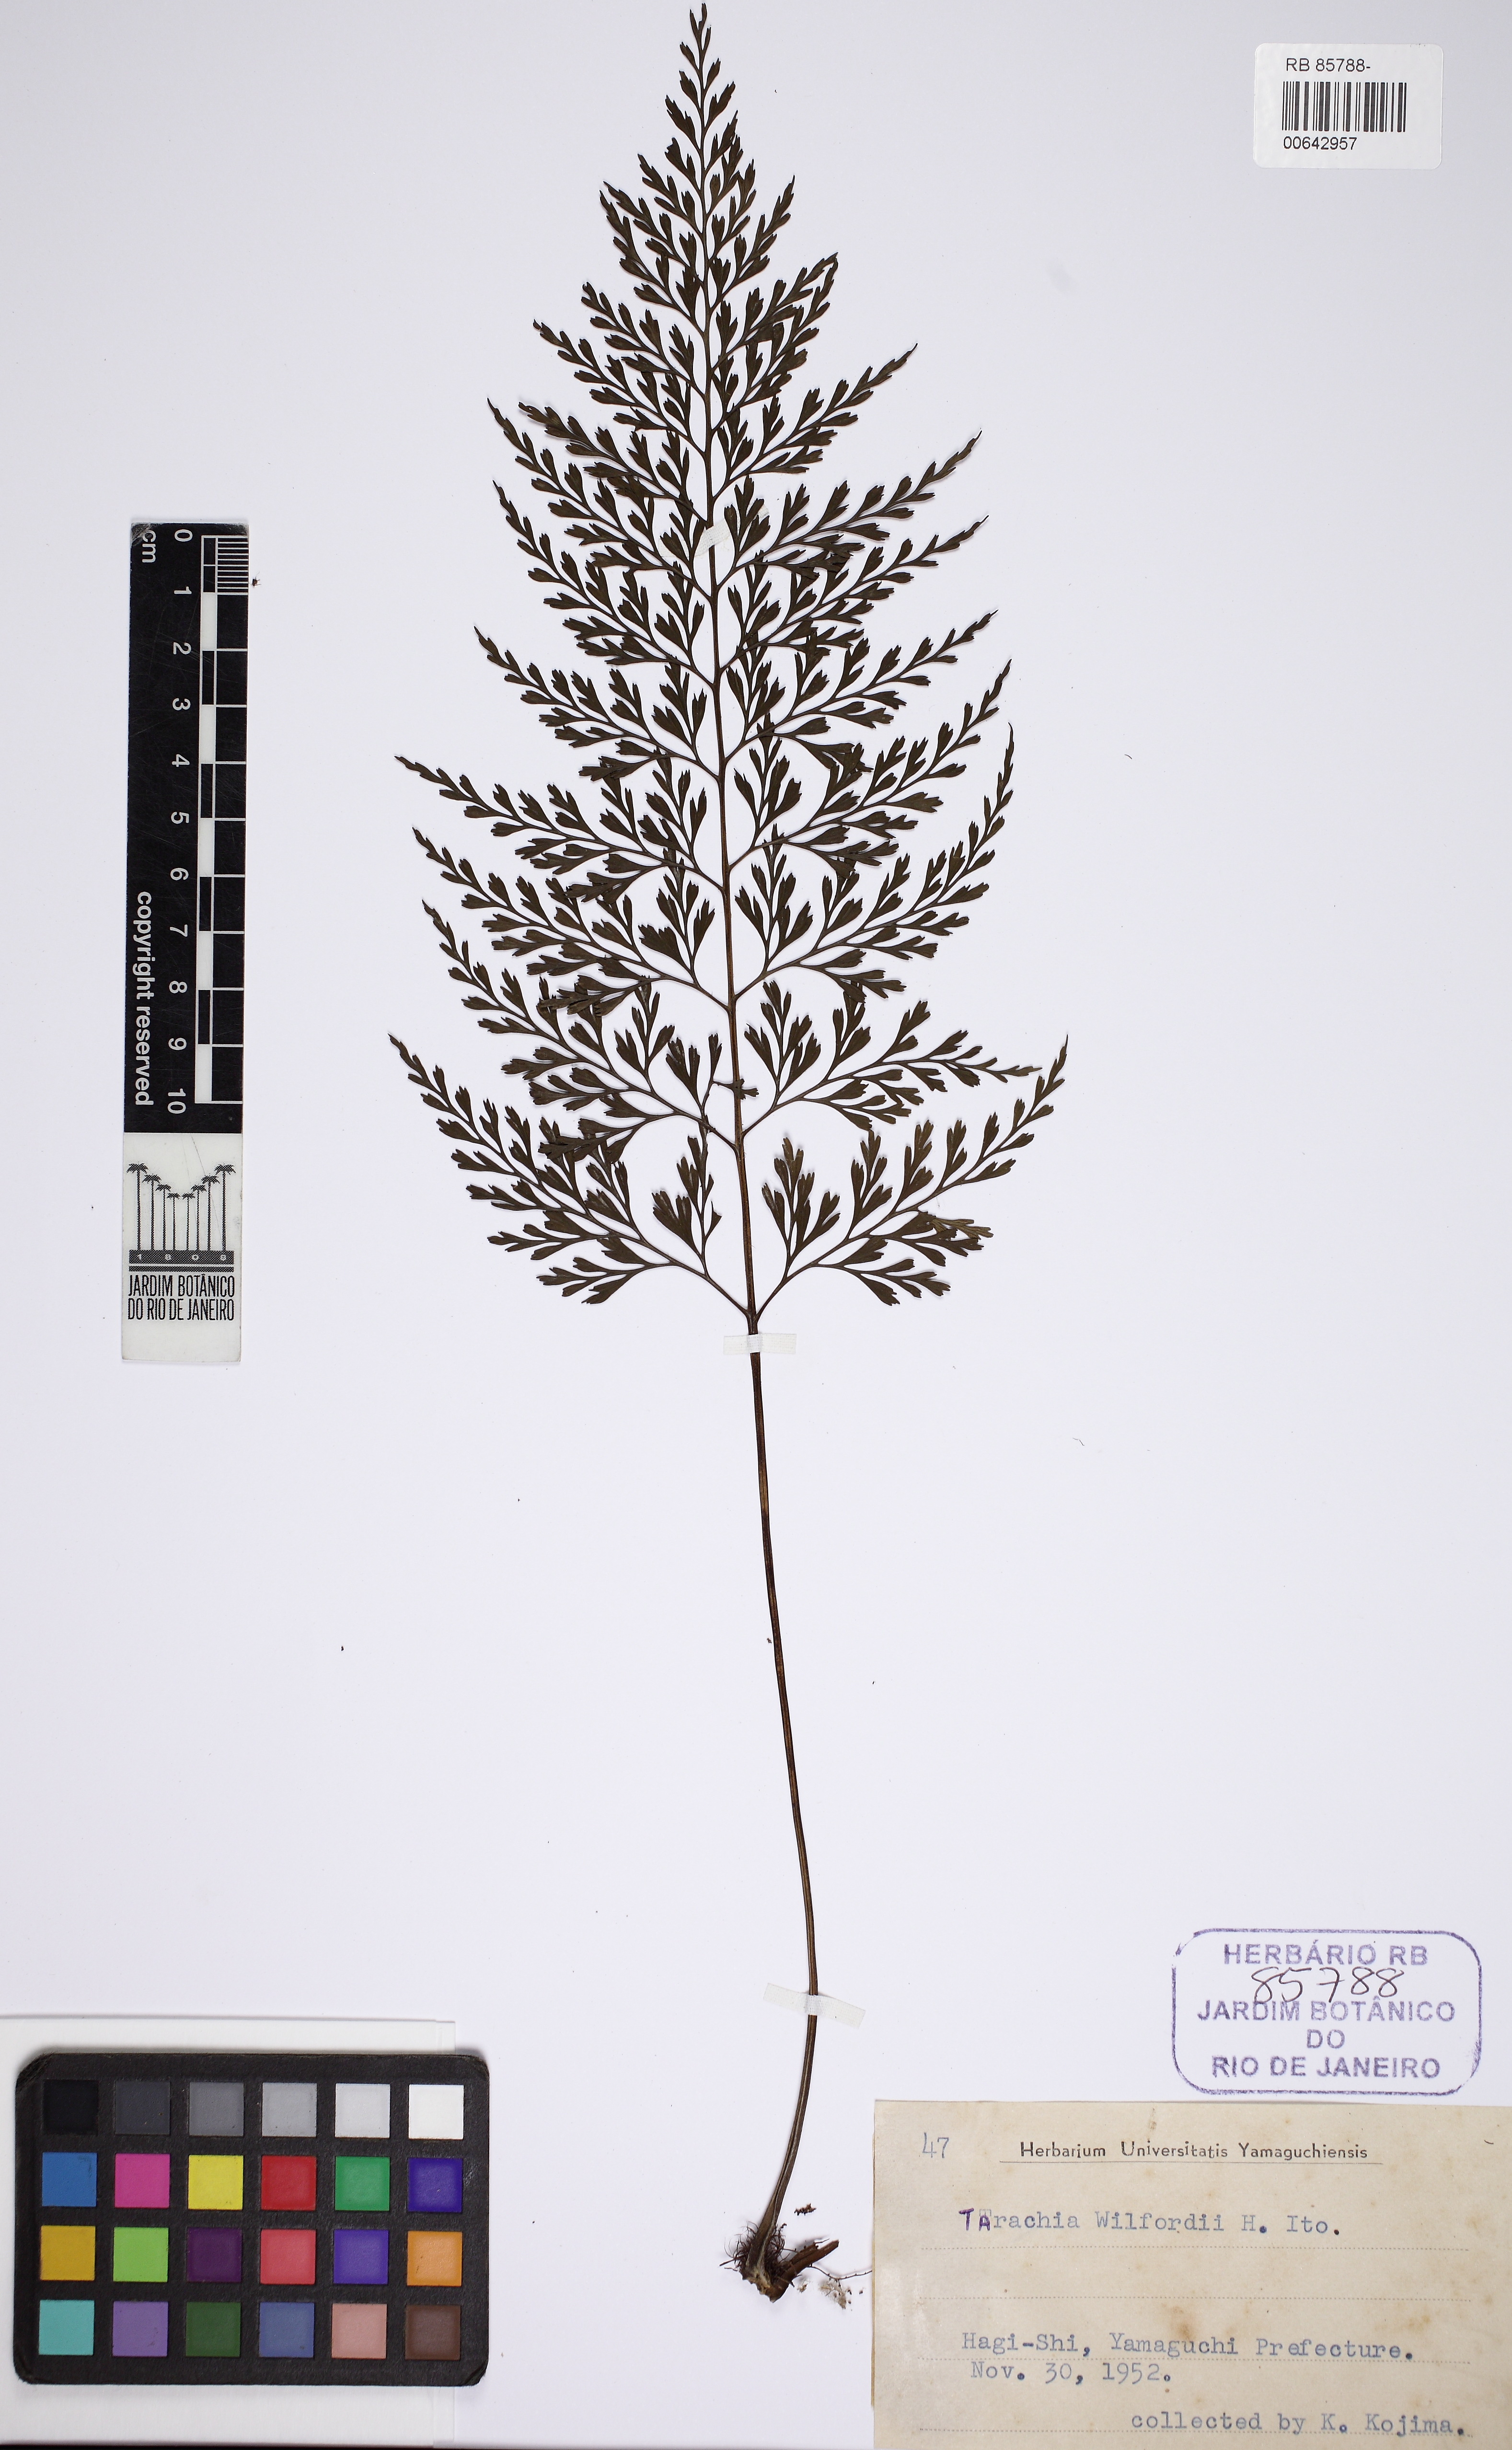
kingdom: Plantae
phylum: Tracheophyta
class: Polypodiopsida
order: Polypodiales
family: Aspleniaceae
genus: Asplenium
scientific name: Asplenium wilfordii
